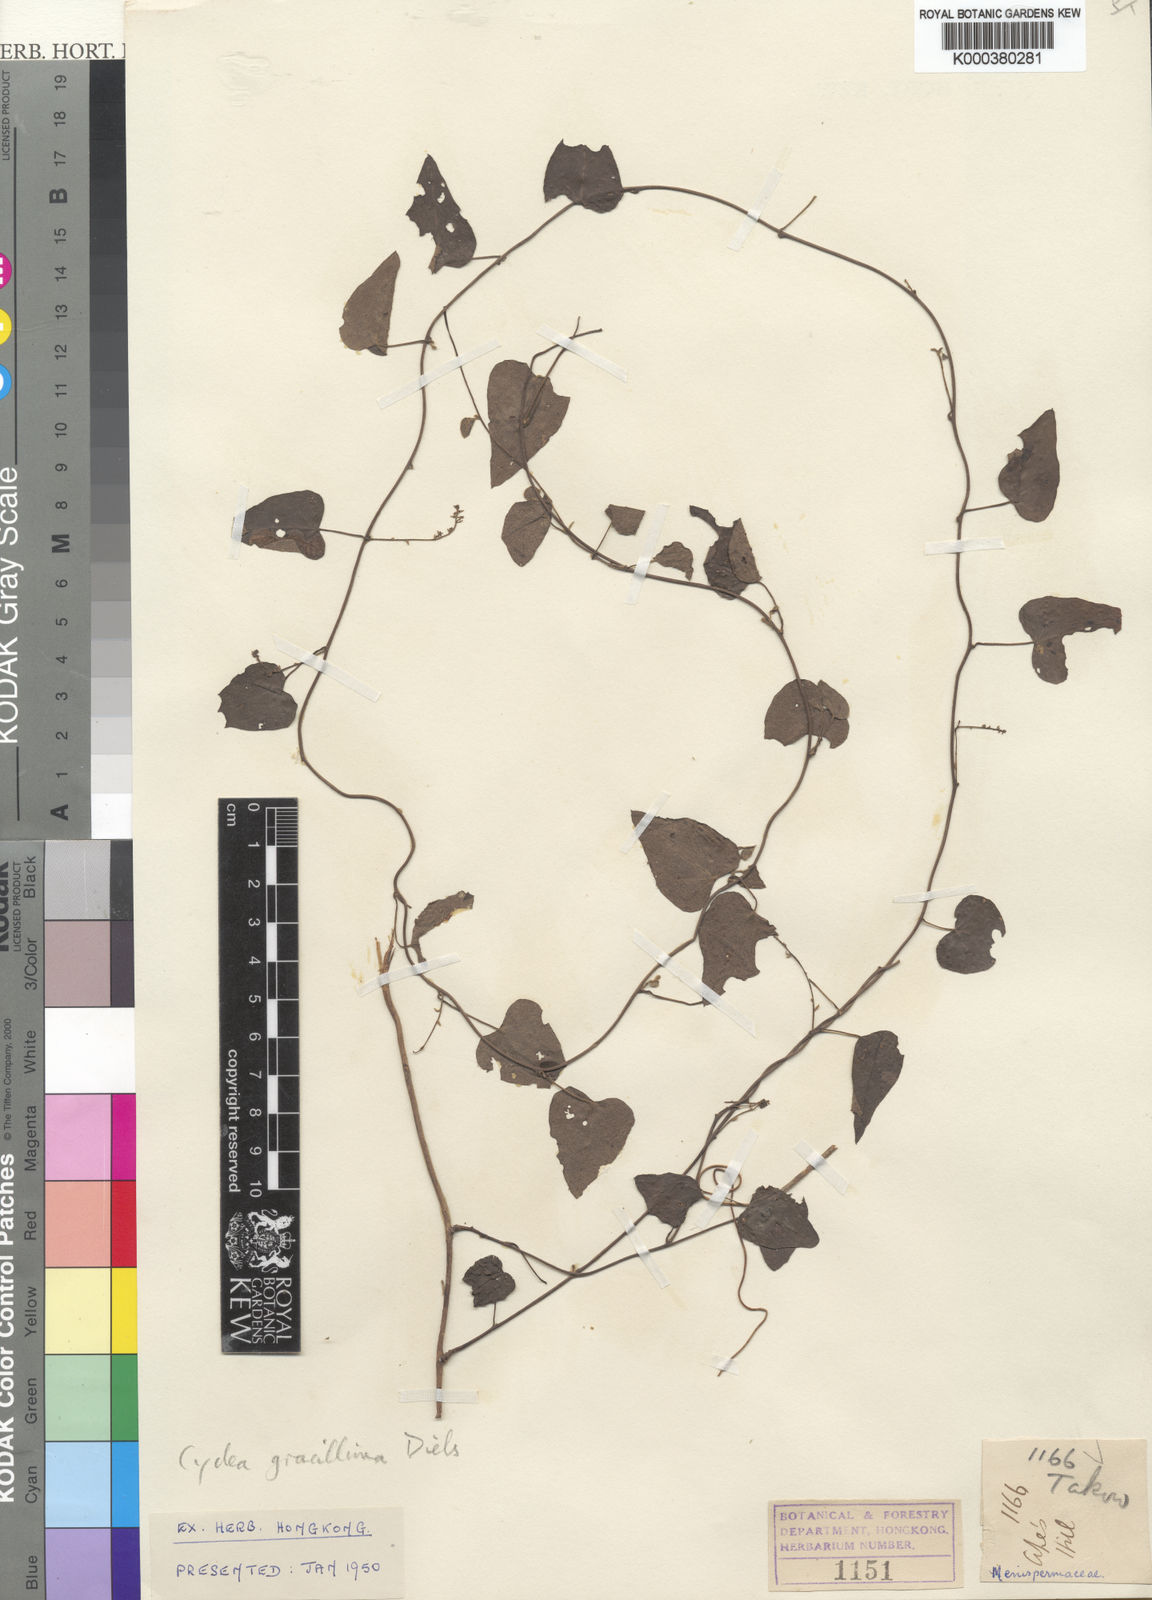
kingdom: Plantae
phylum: Tracheophyta
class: Magnoliopsida
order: Ranunculales
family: Menispermaceae
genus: Cyclea
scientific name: Cyclea gracillima
